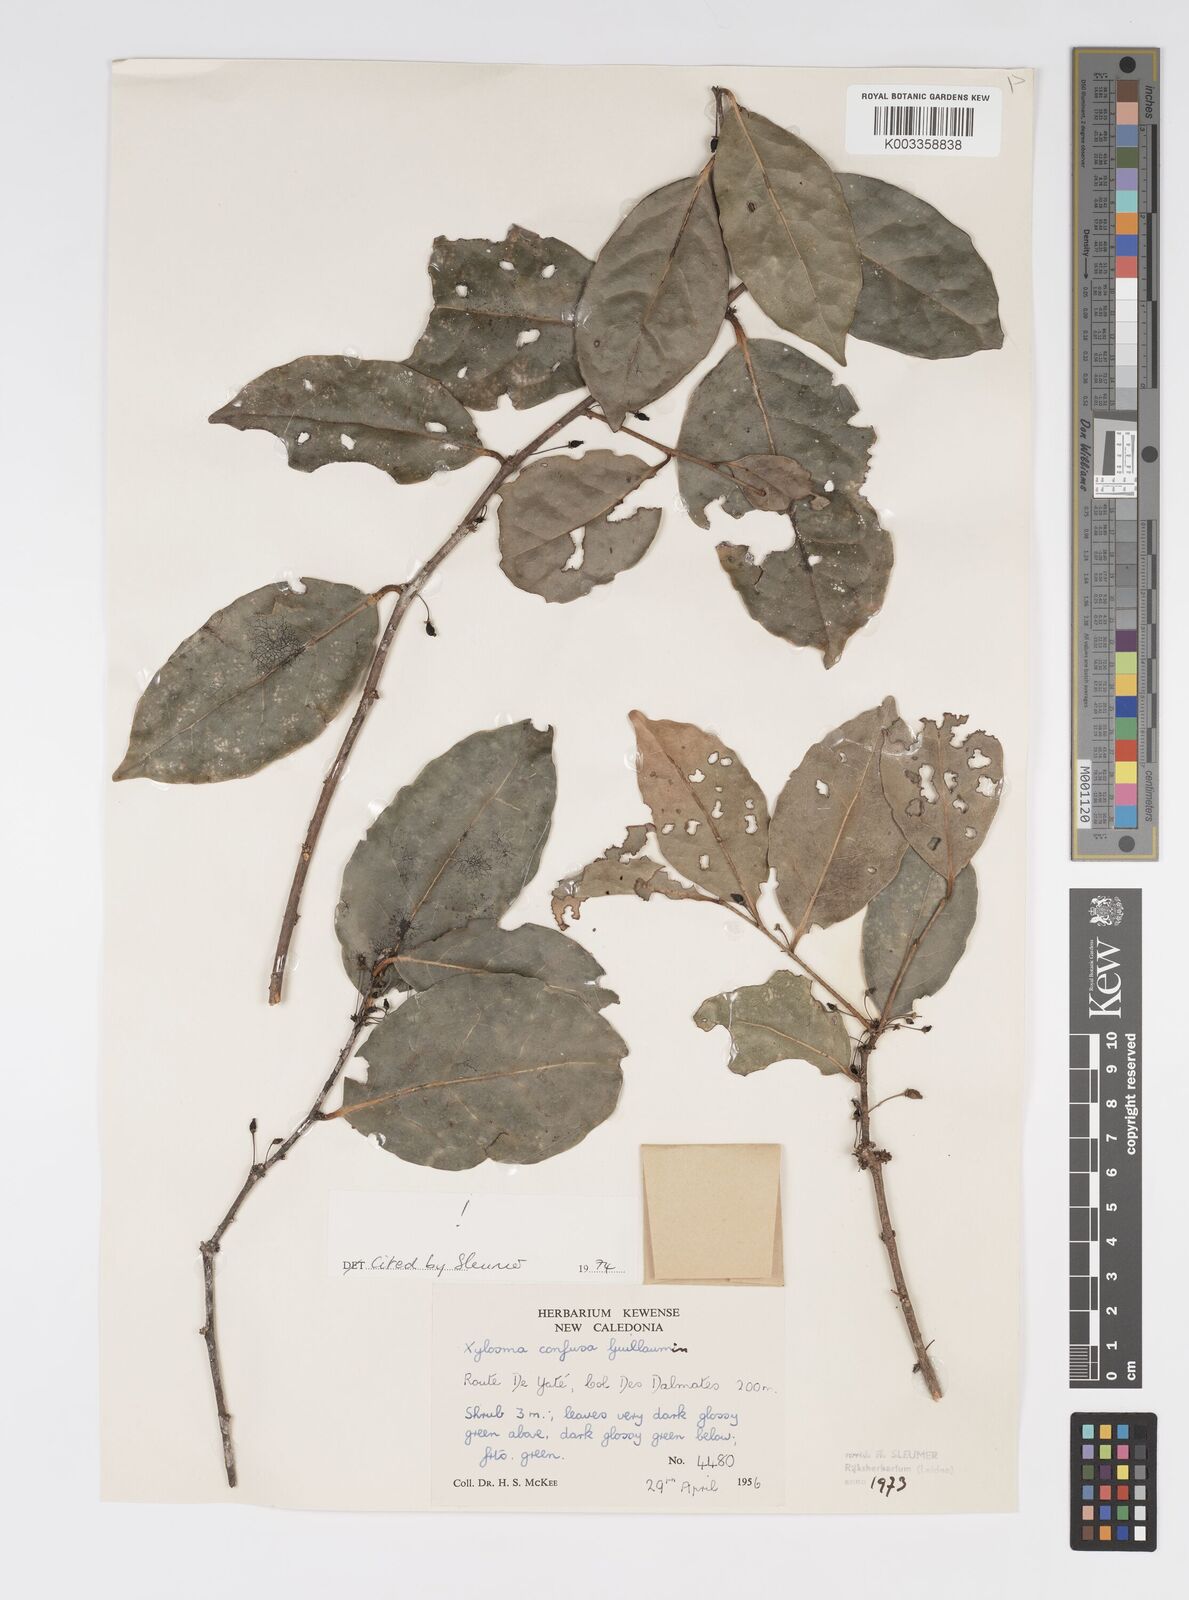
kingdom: Plantae
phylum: Tracheophyta
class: Magnoliopsida
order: Malpighiales
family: Salicaceae
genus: Xylosma
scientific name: Xylosma confusa
